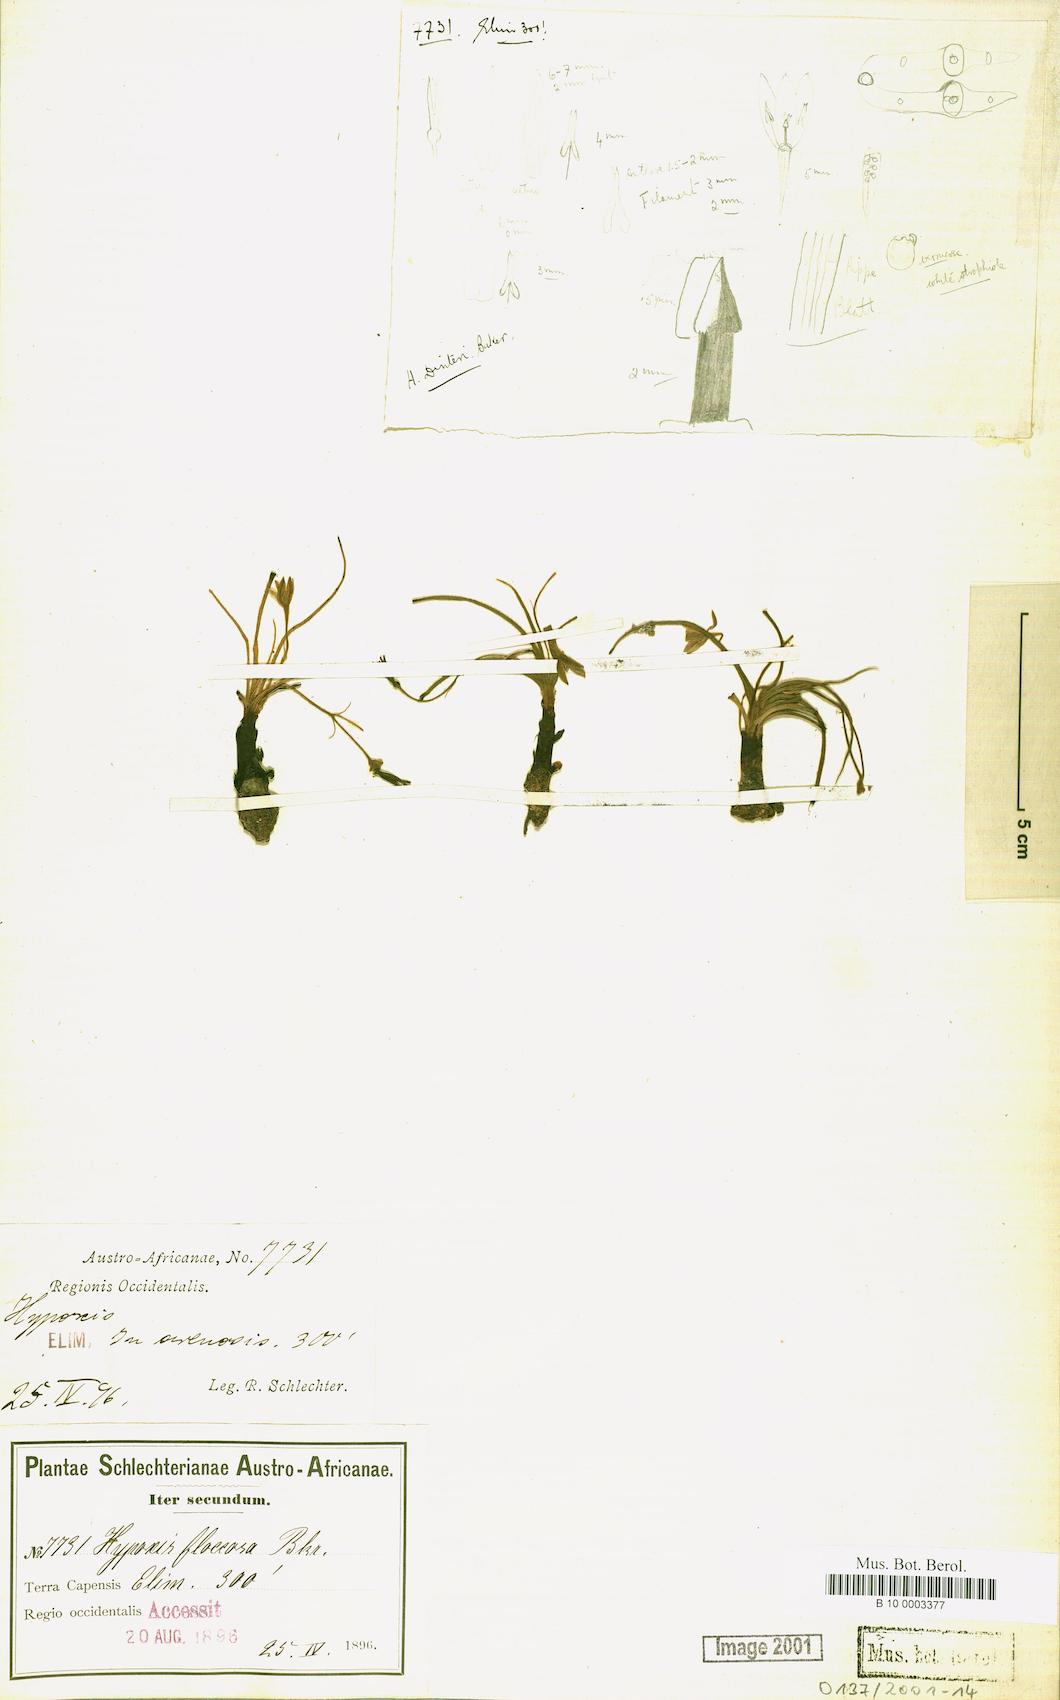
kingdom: Plantae
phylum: Tracheophyta
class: Liliopsida
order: Asparagales
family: Hypoxidaceae
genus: Hypoxis
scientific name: Hypoxis floccosa
